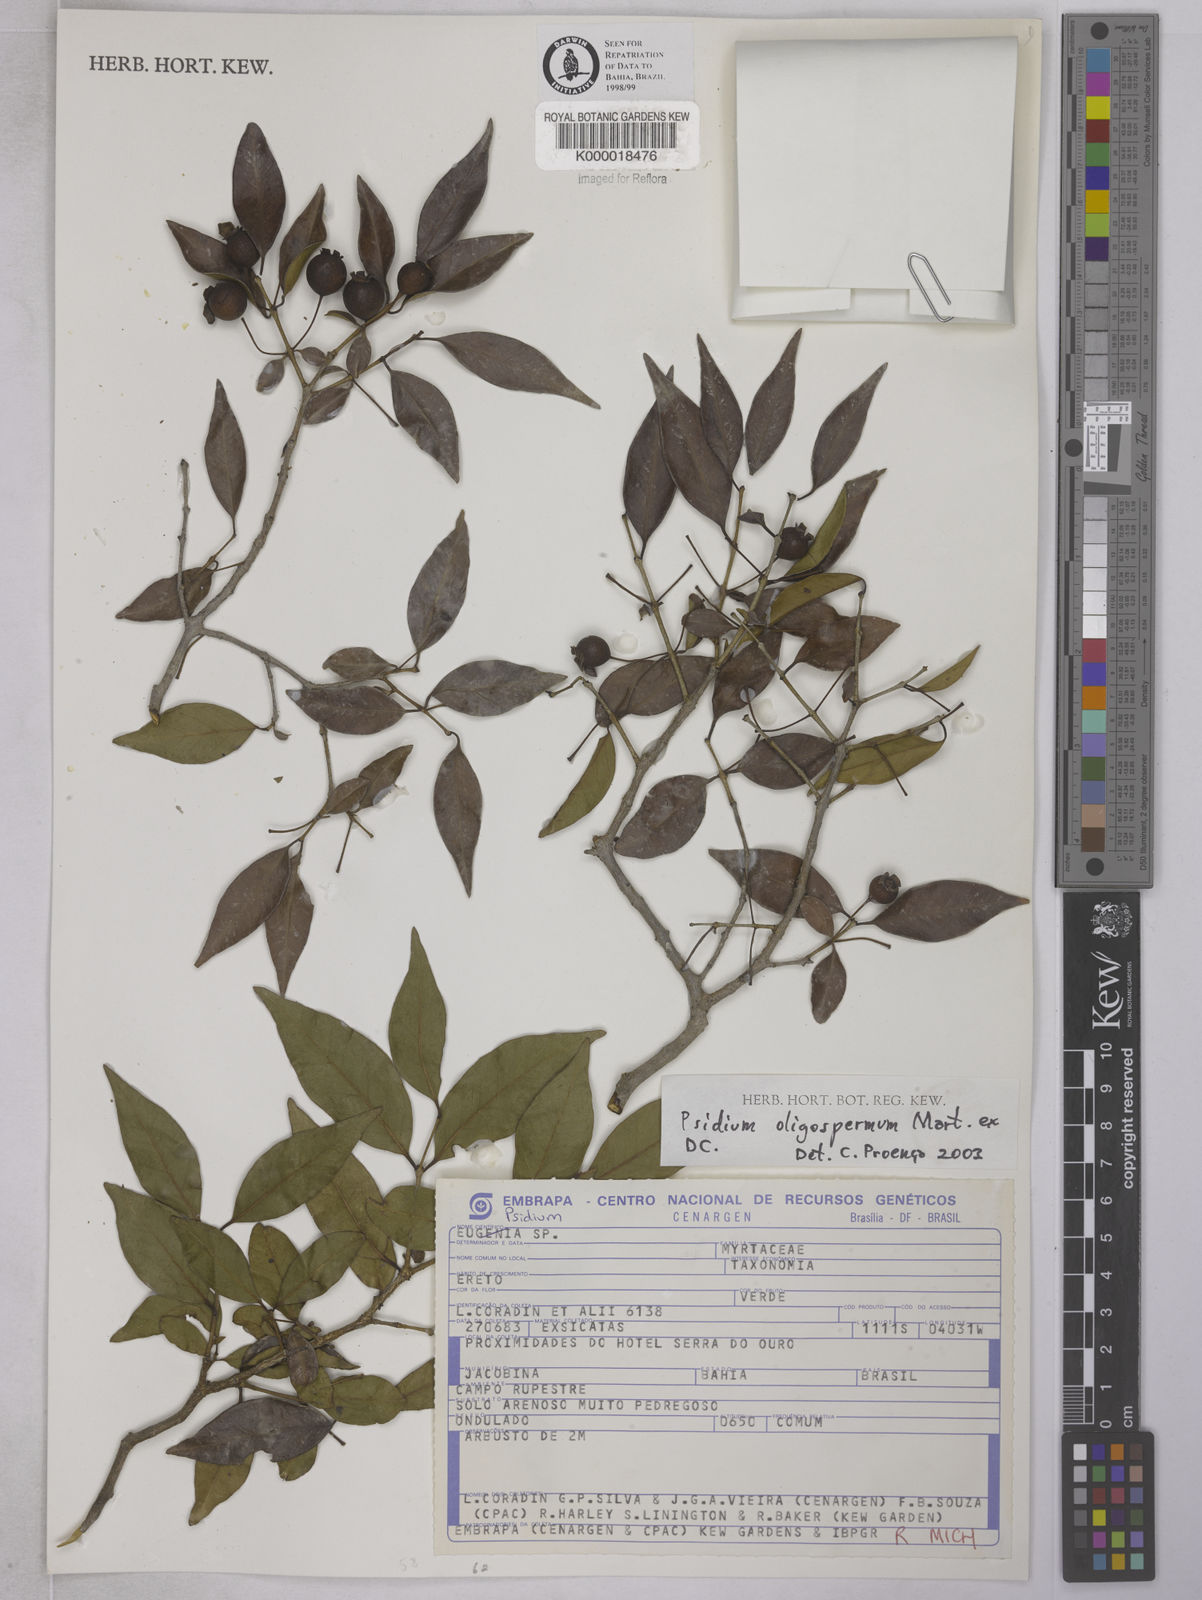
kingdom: Plantae
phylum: Tracheophyta
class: Magnoliopsida
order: Myrtales
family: Myrtaceae
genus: Psidium
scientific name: Psidium
